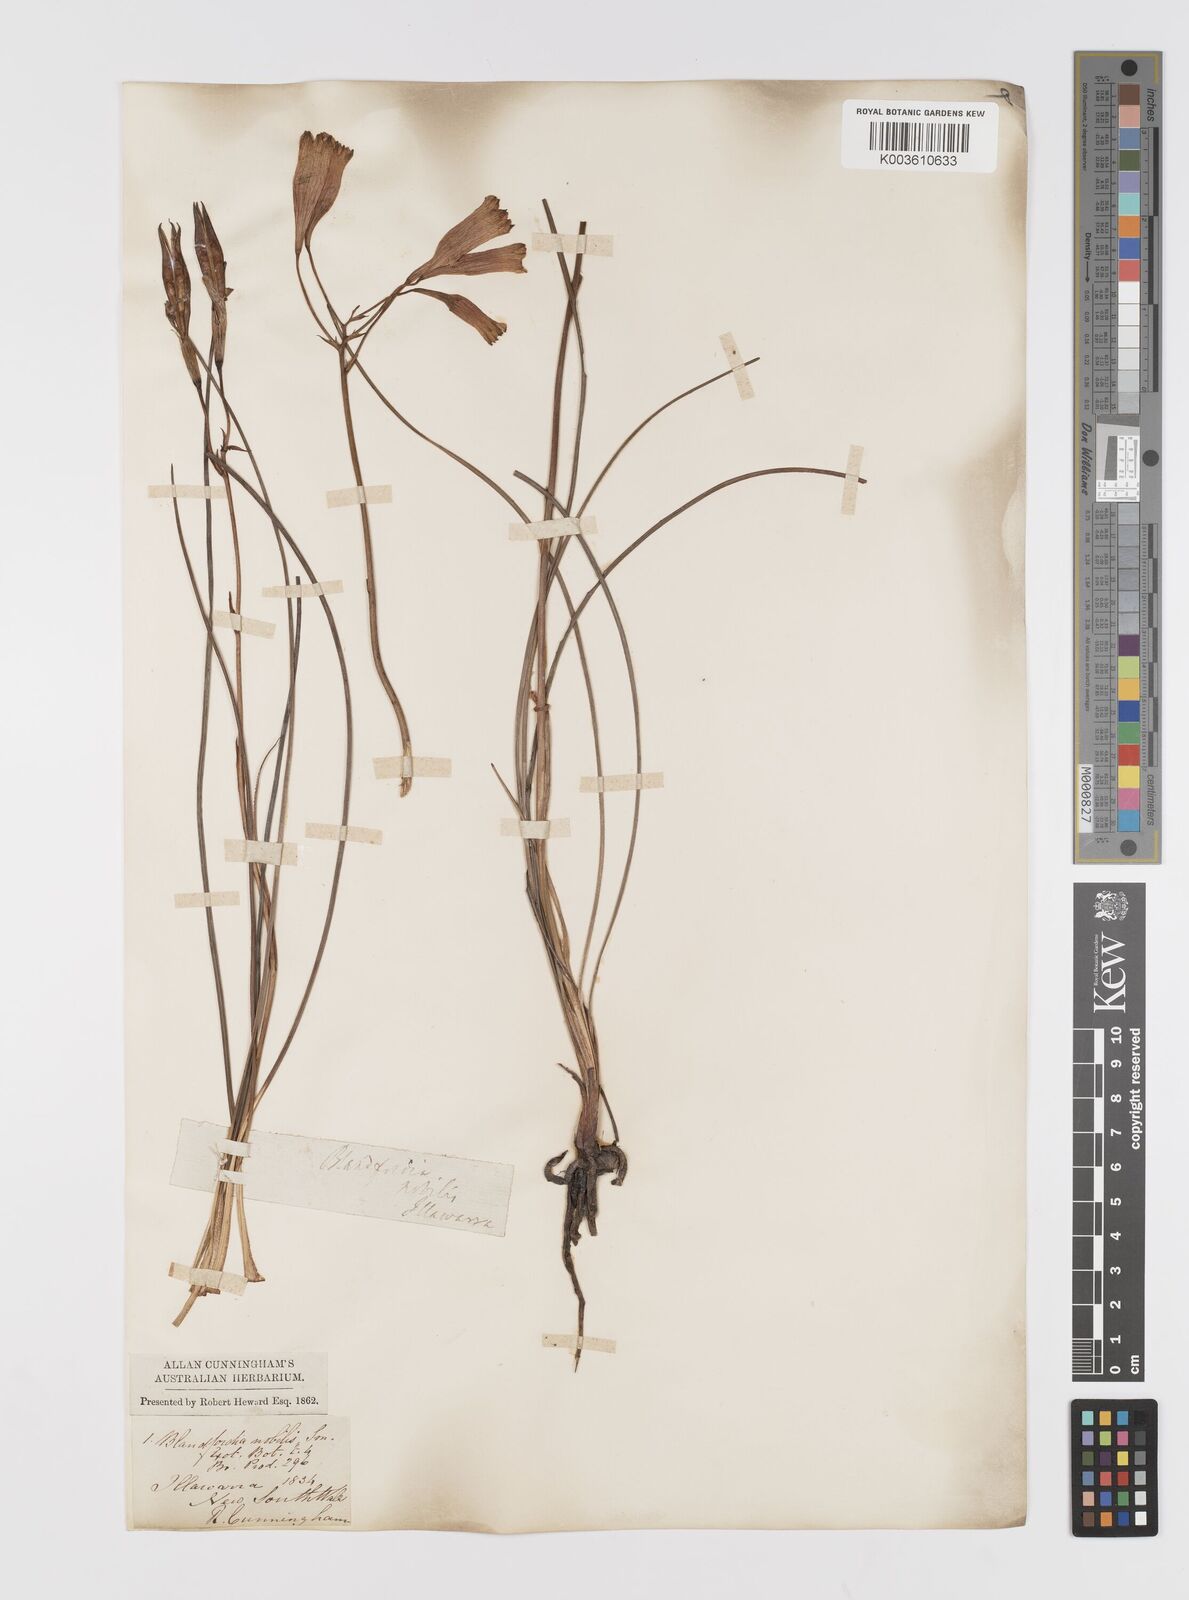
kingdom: Plantae
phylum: Tracheophyta
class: Liliopsida
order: Asparagales
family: Blandfordiaceae
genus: Blandfordia
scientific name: Blandfordia nobilis
